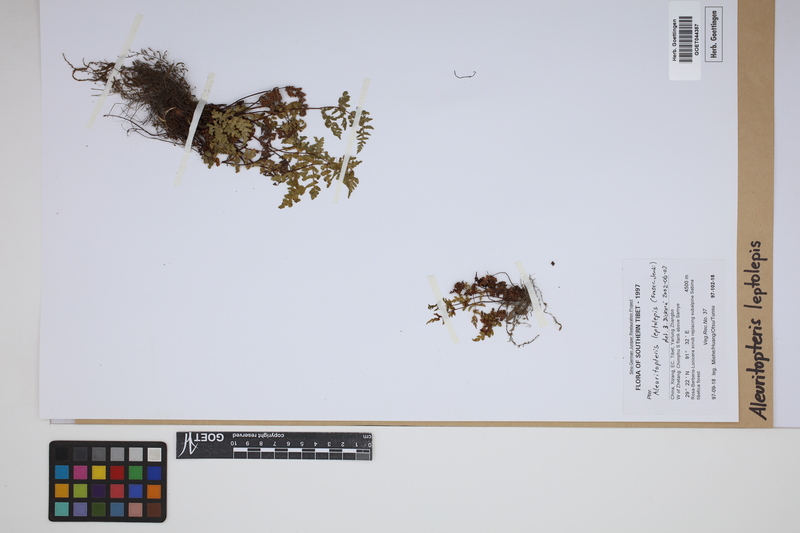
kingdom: Plantae
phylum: Tracheophyta
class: Polypodiopsida
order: Polypodiales
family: Pteridaceae
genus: Aleuritopteris
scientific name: Aleuritopteris leptolepis
